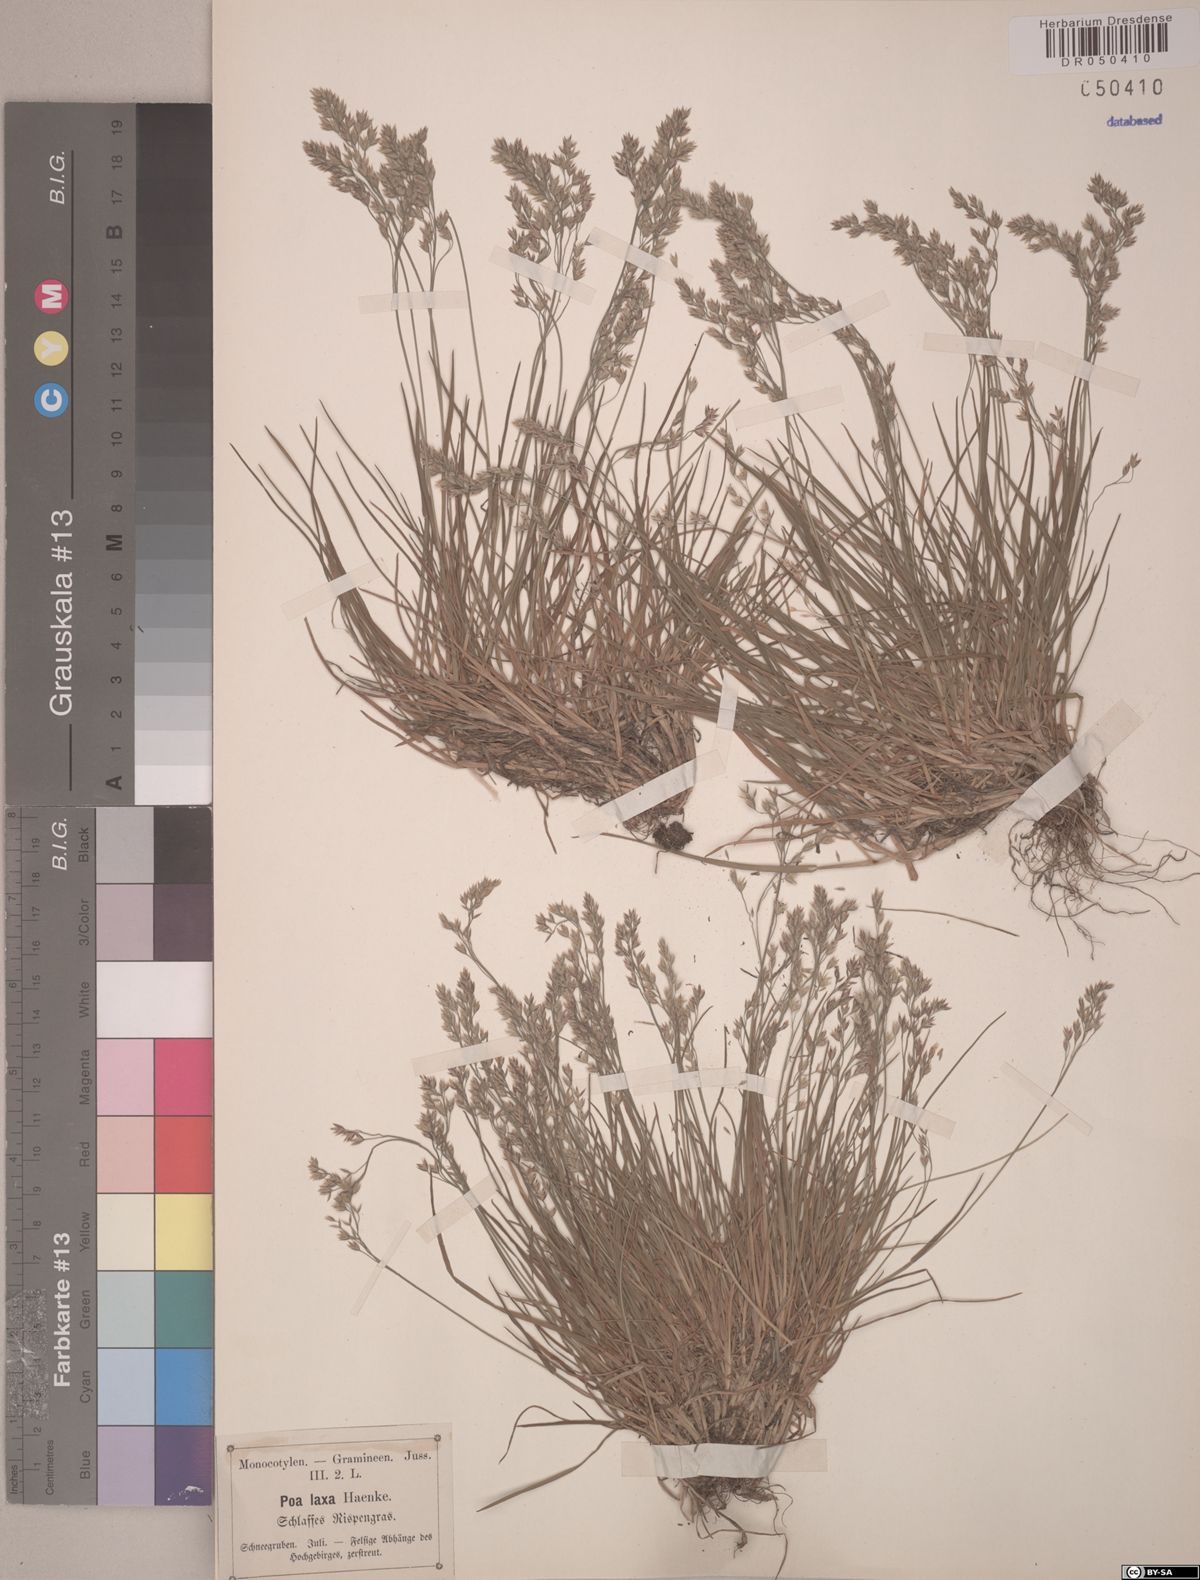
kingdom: Plantae
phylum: Tracheophyta
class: Liliopsida
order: Poales
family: Poaceae
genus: Poa
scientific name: Poa laxa
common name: Lax bluegrass
